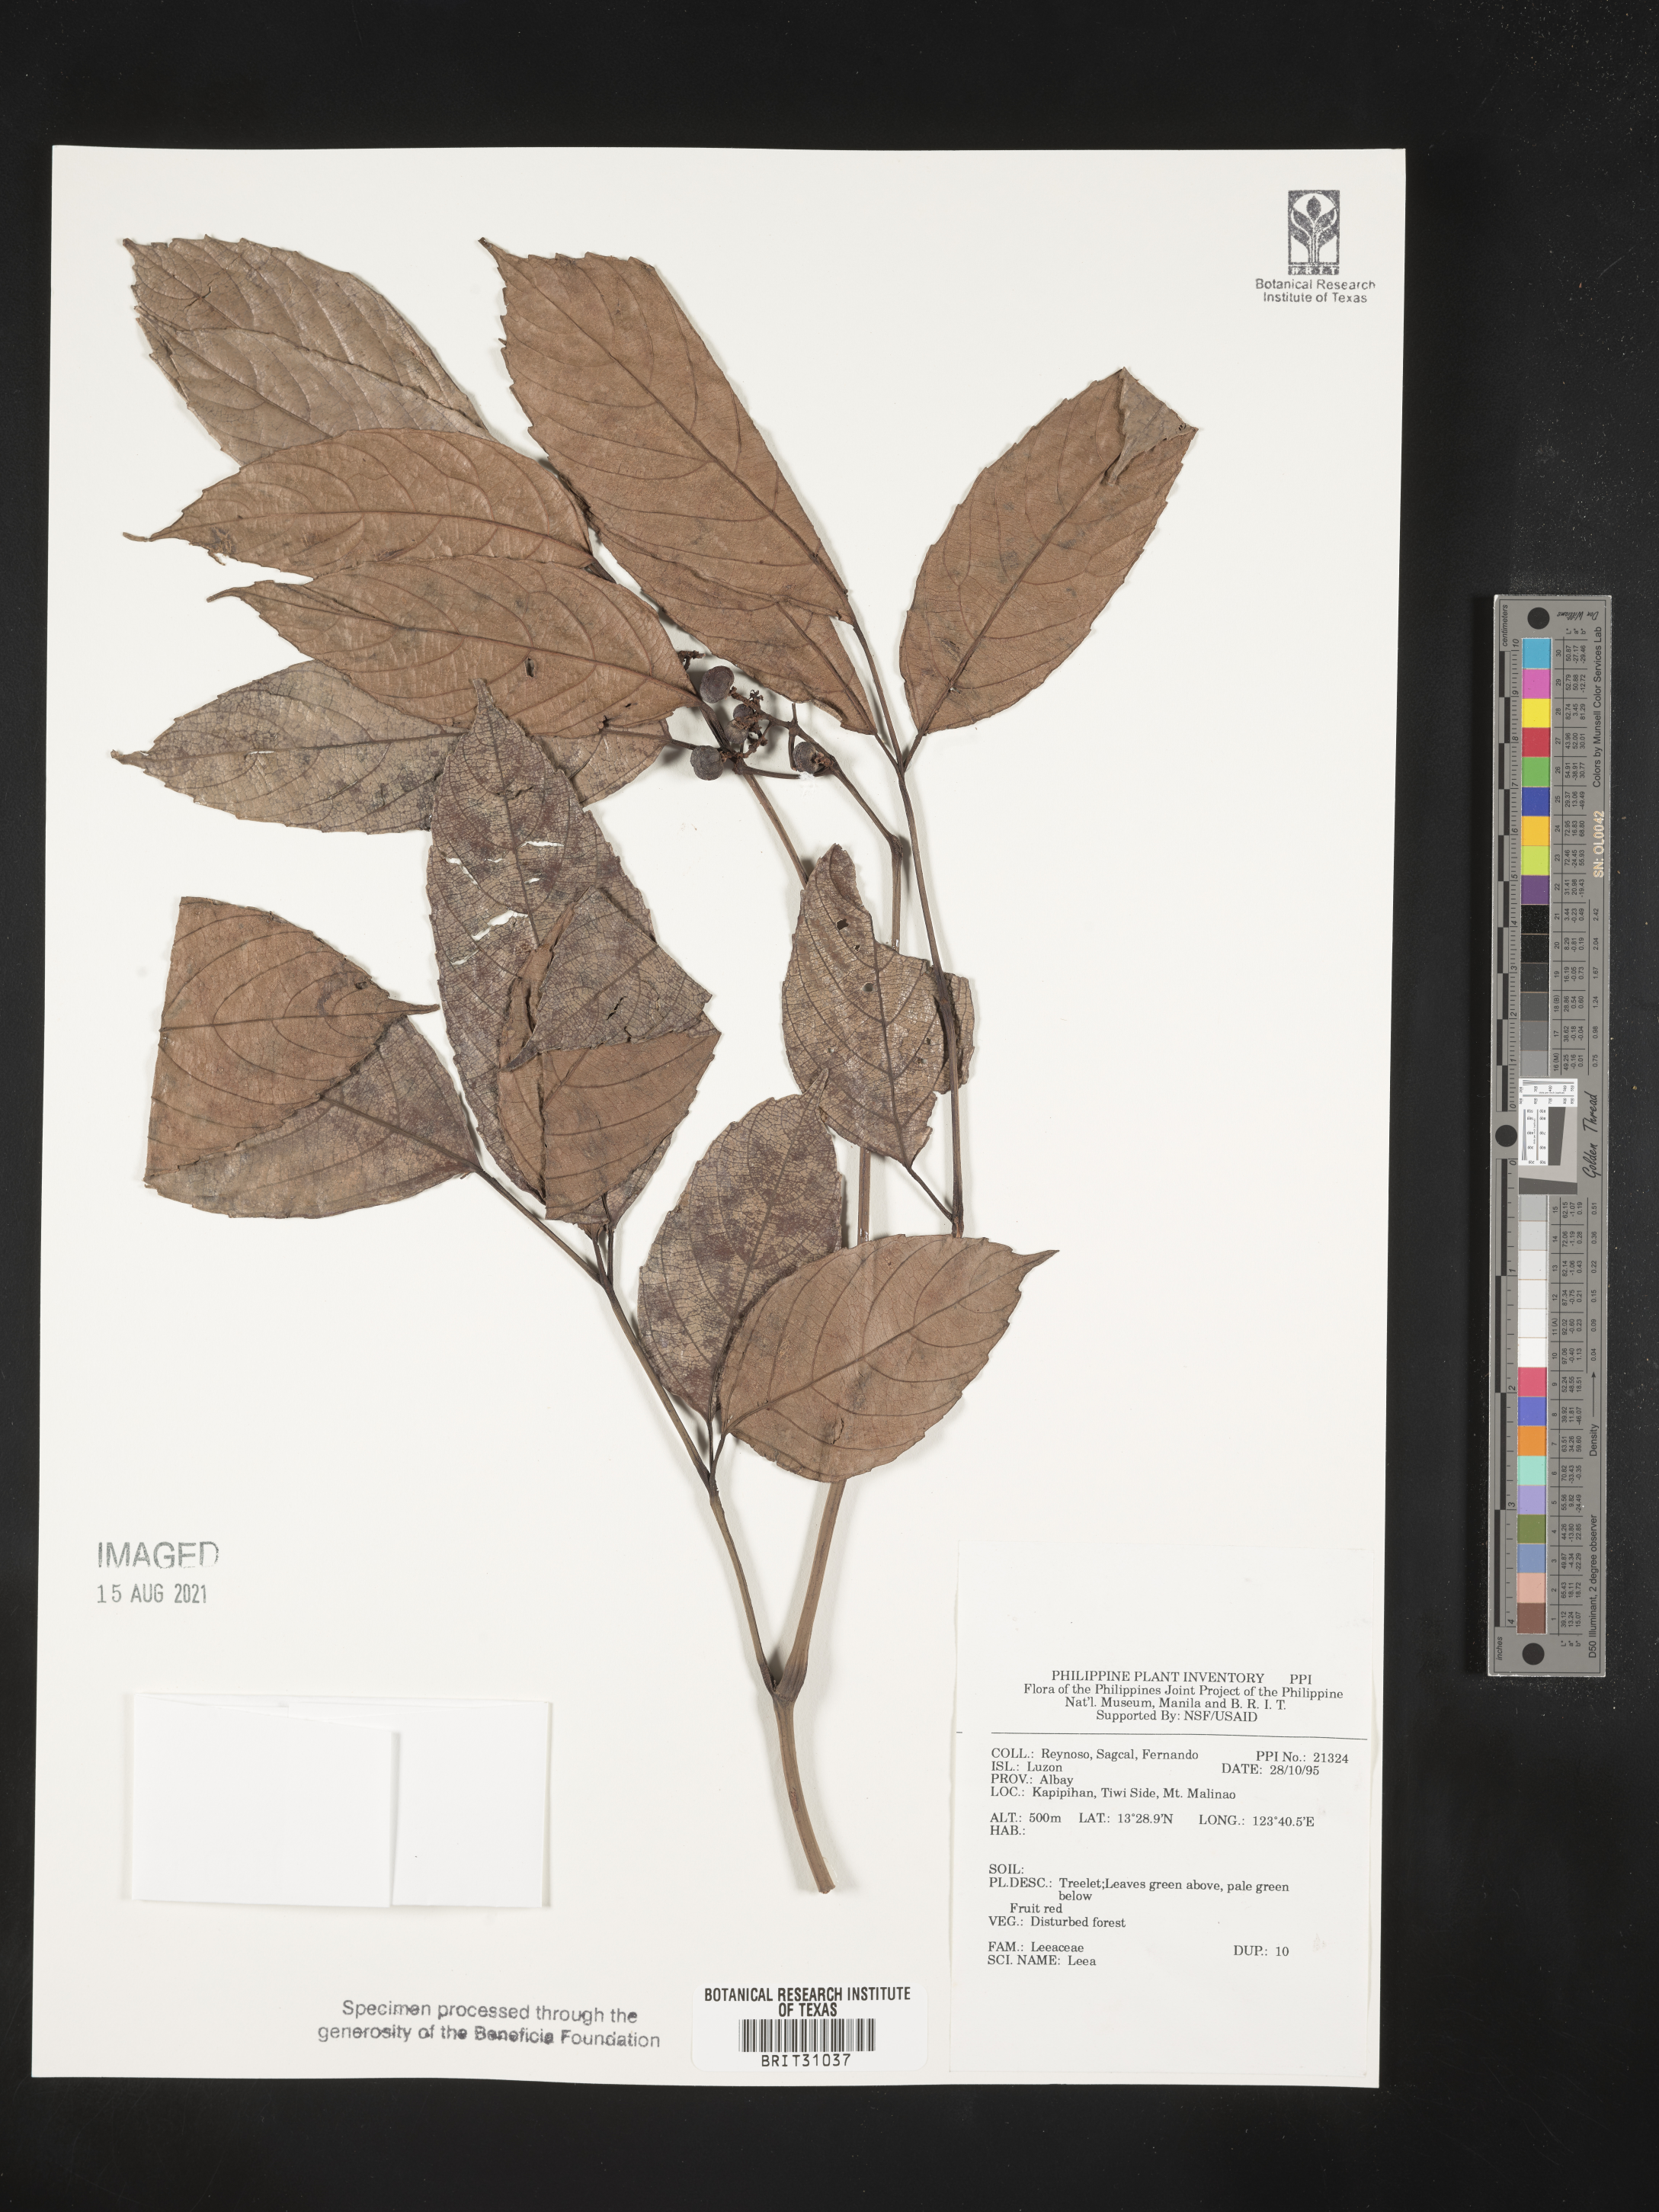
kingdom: Plantae
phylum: Tracheophyta
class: Magnoliopsida
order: Vitales
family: Vitaceae
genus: Leea
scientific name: Leea
